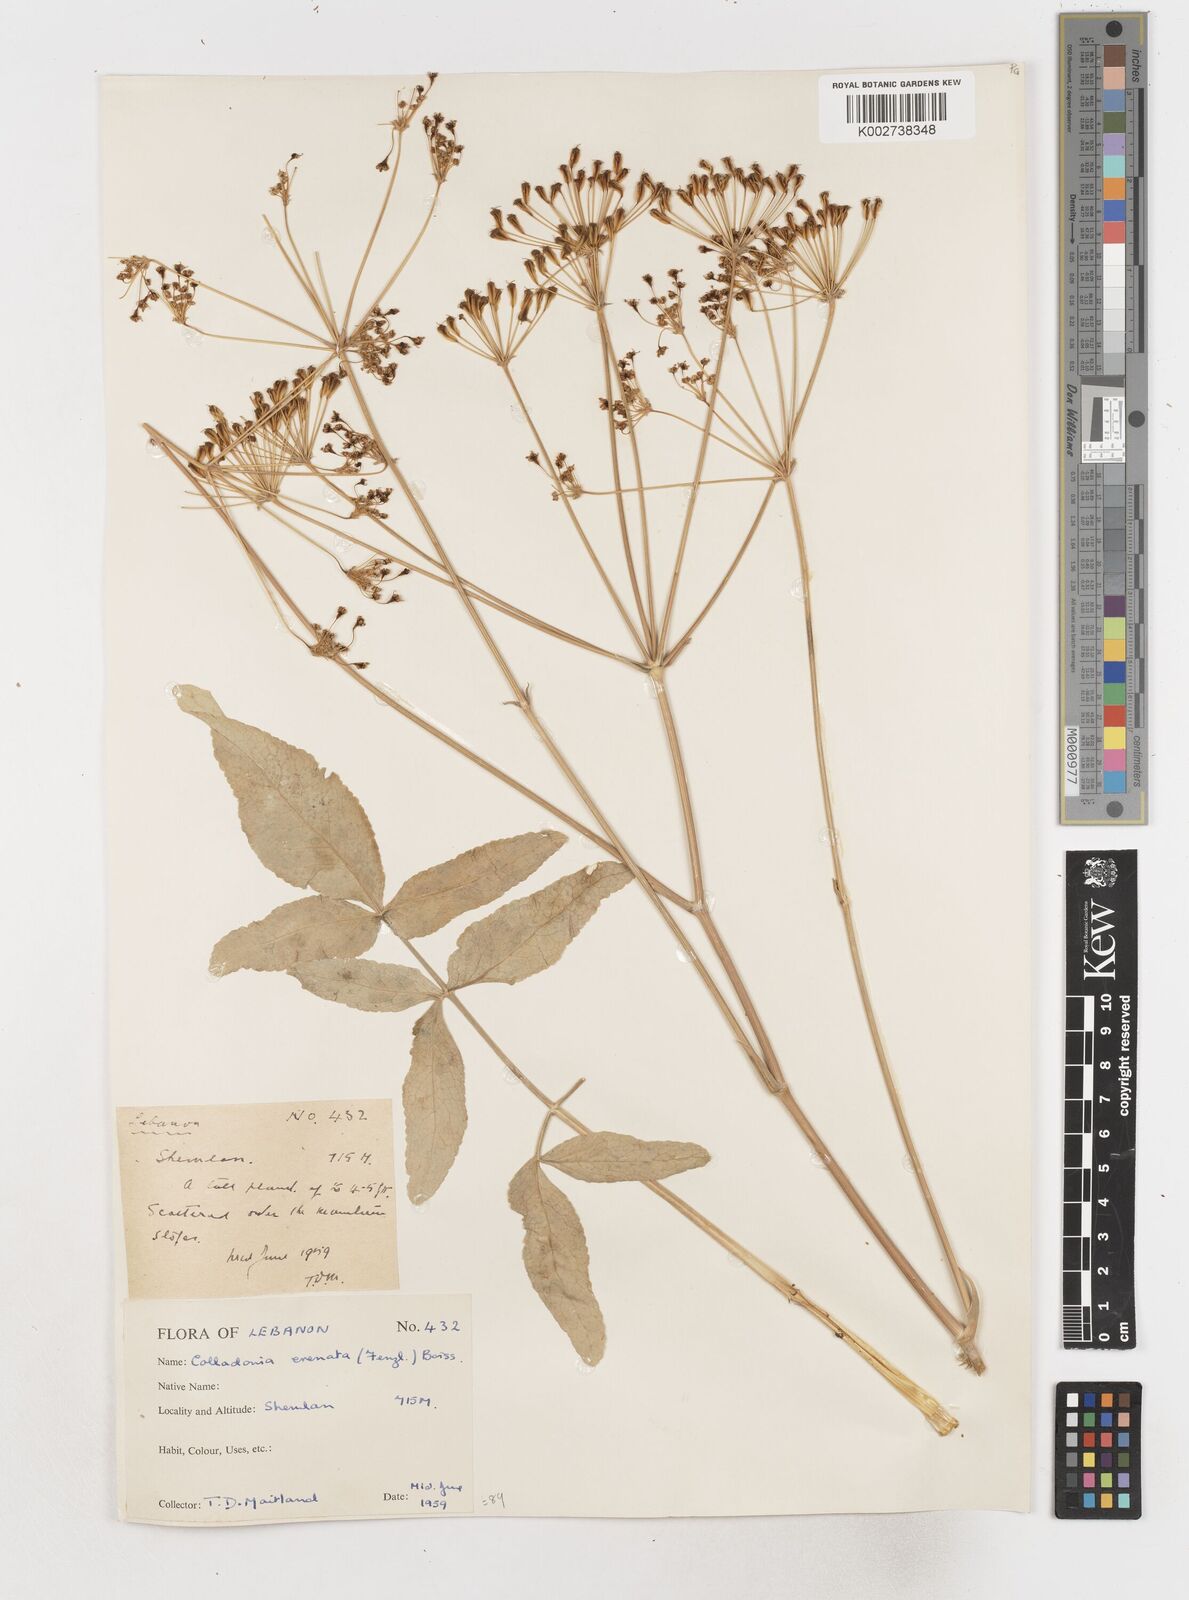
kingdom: Plantae
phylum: Tracheophyta
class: Magnoliopsida
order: Apiales
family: Apiaceae
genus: Heptaptera
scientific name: Heptaptera anisoptera
